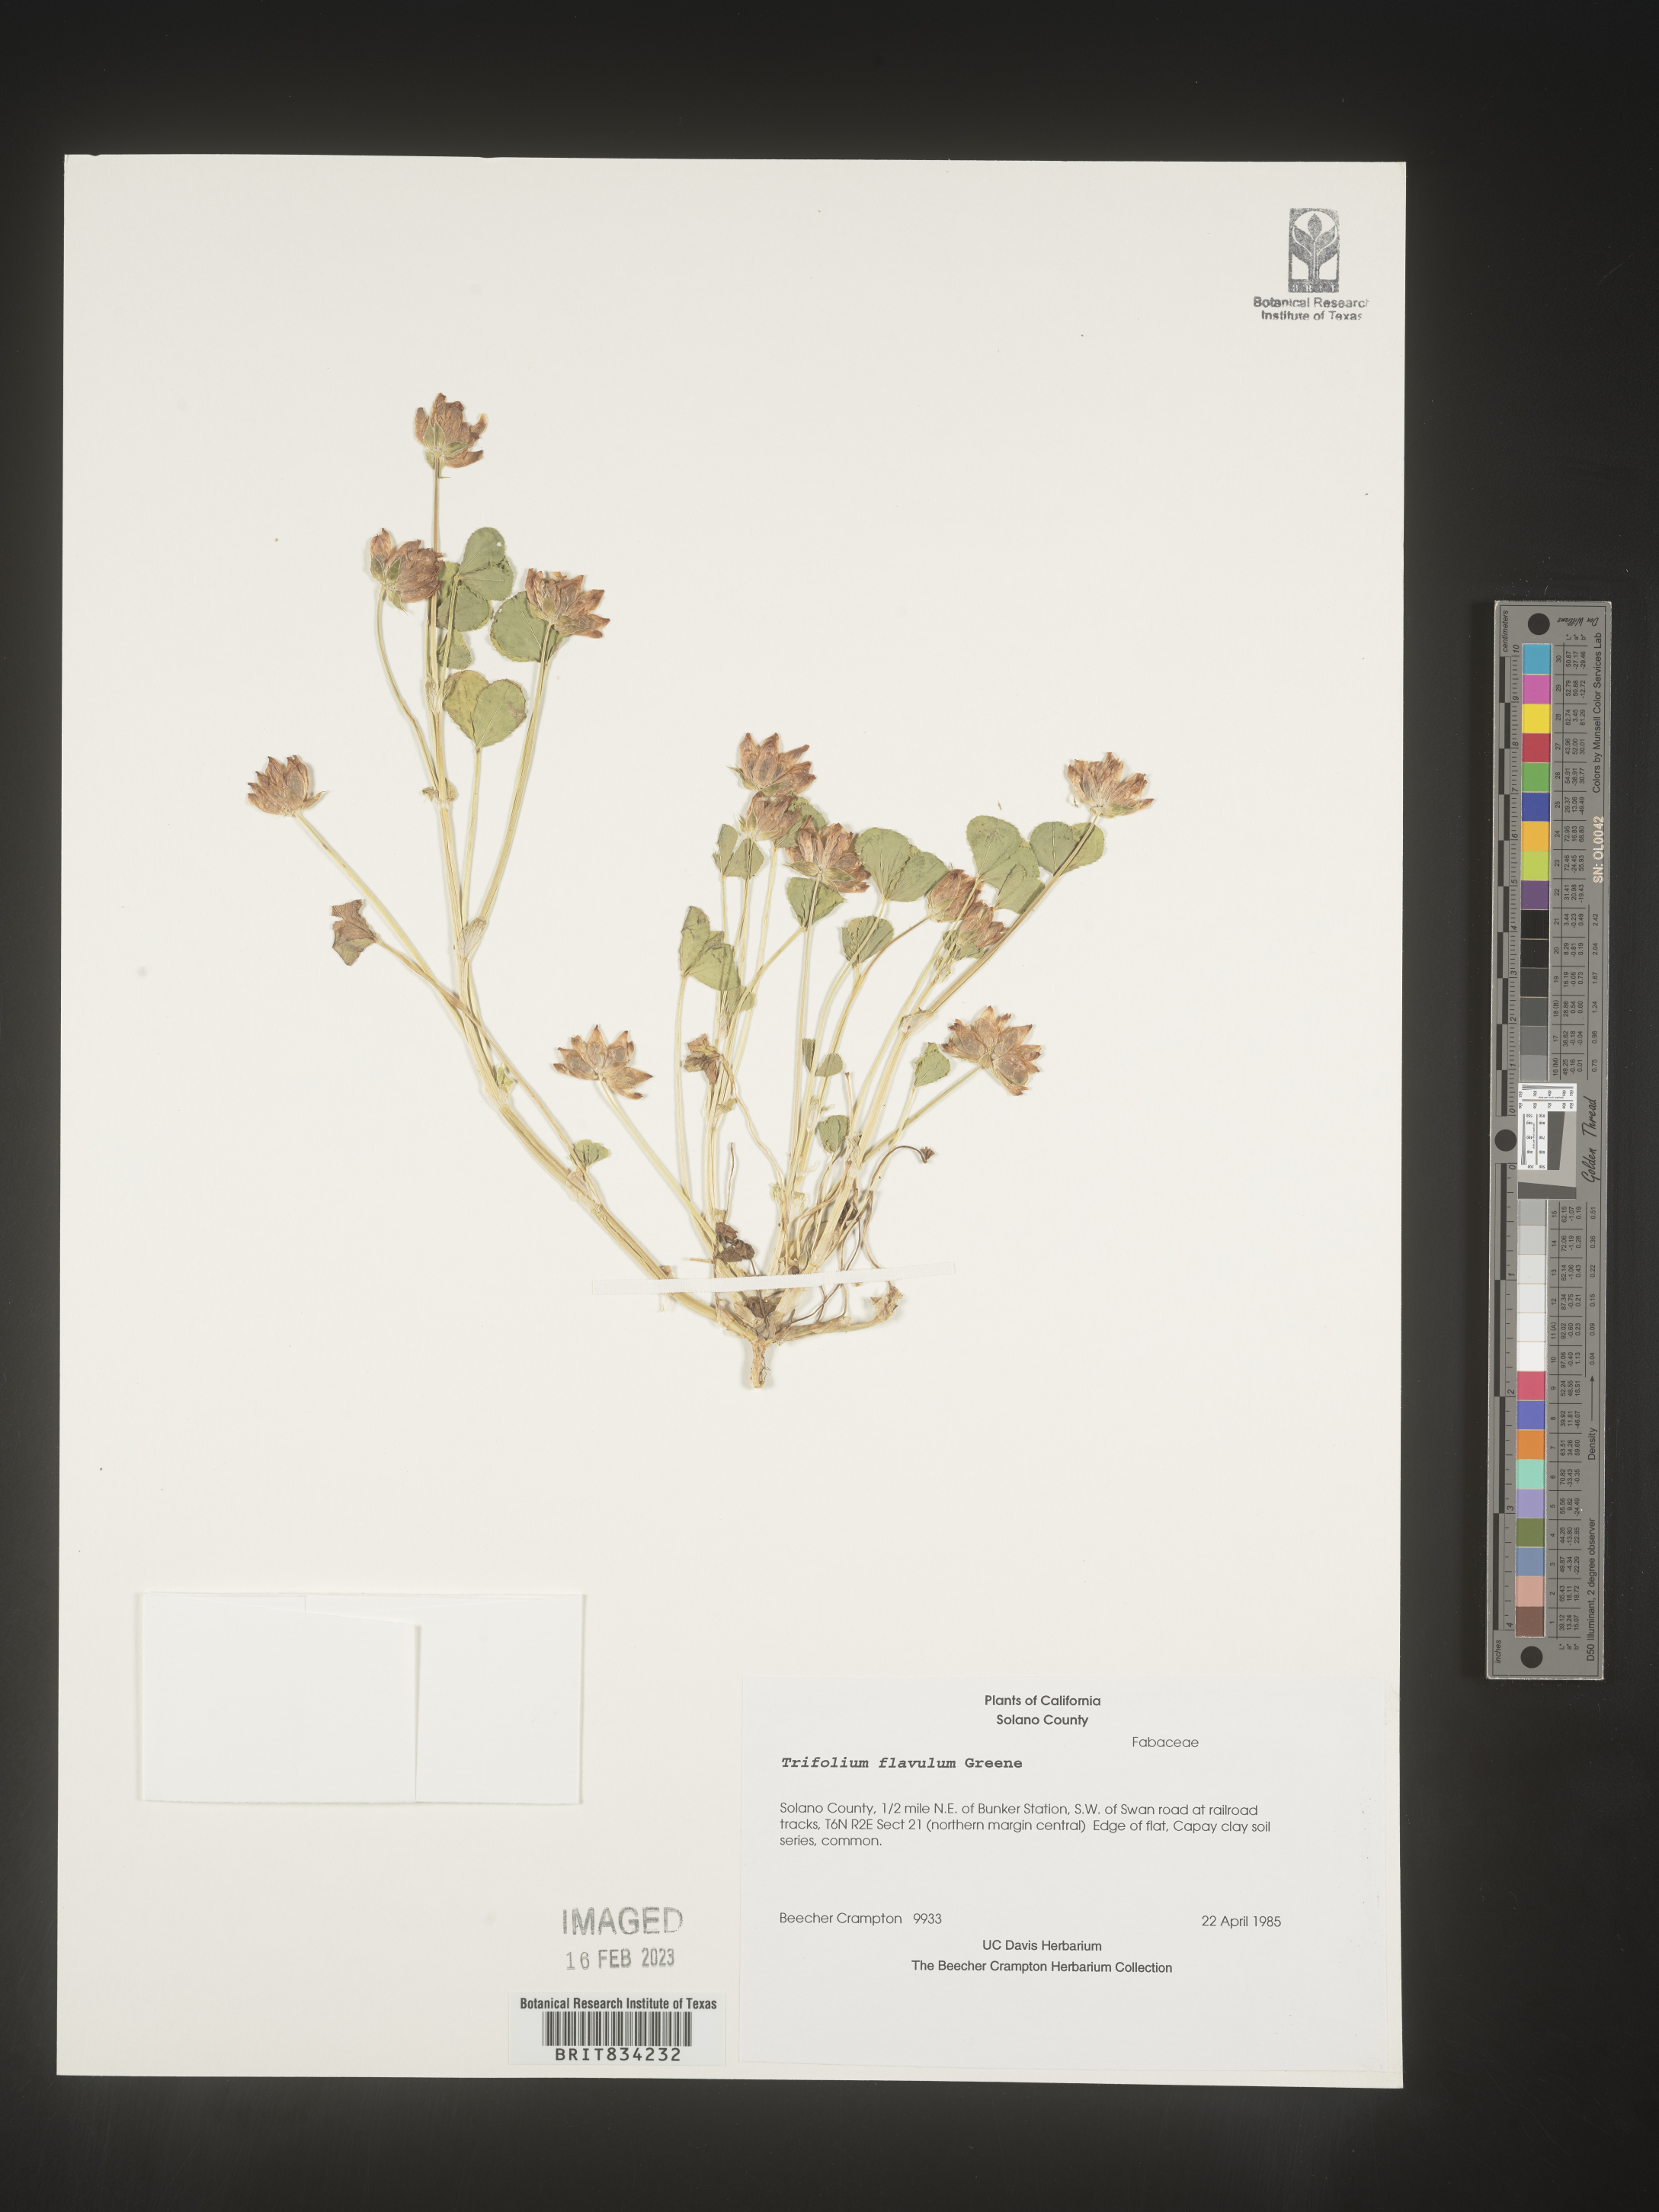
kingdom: Plantae
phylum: Tracheophyta
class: Magnoliopsida
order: Fabales
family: Fabaceae
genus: Trifolium
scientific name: Trifolium
